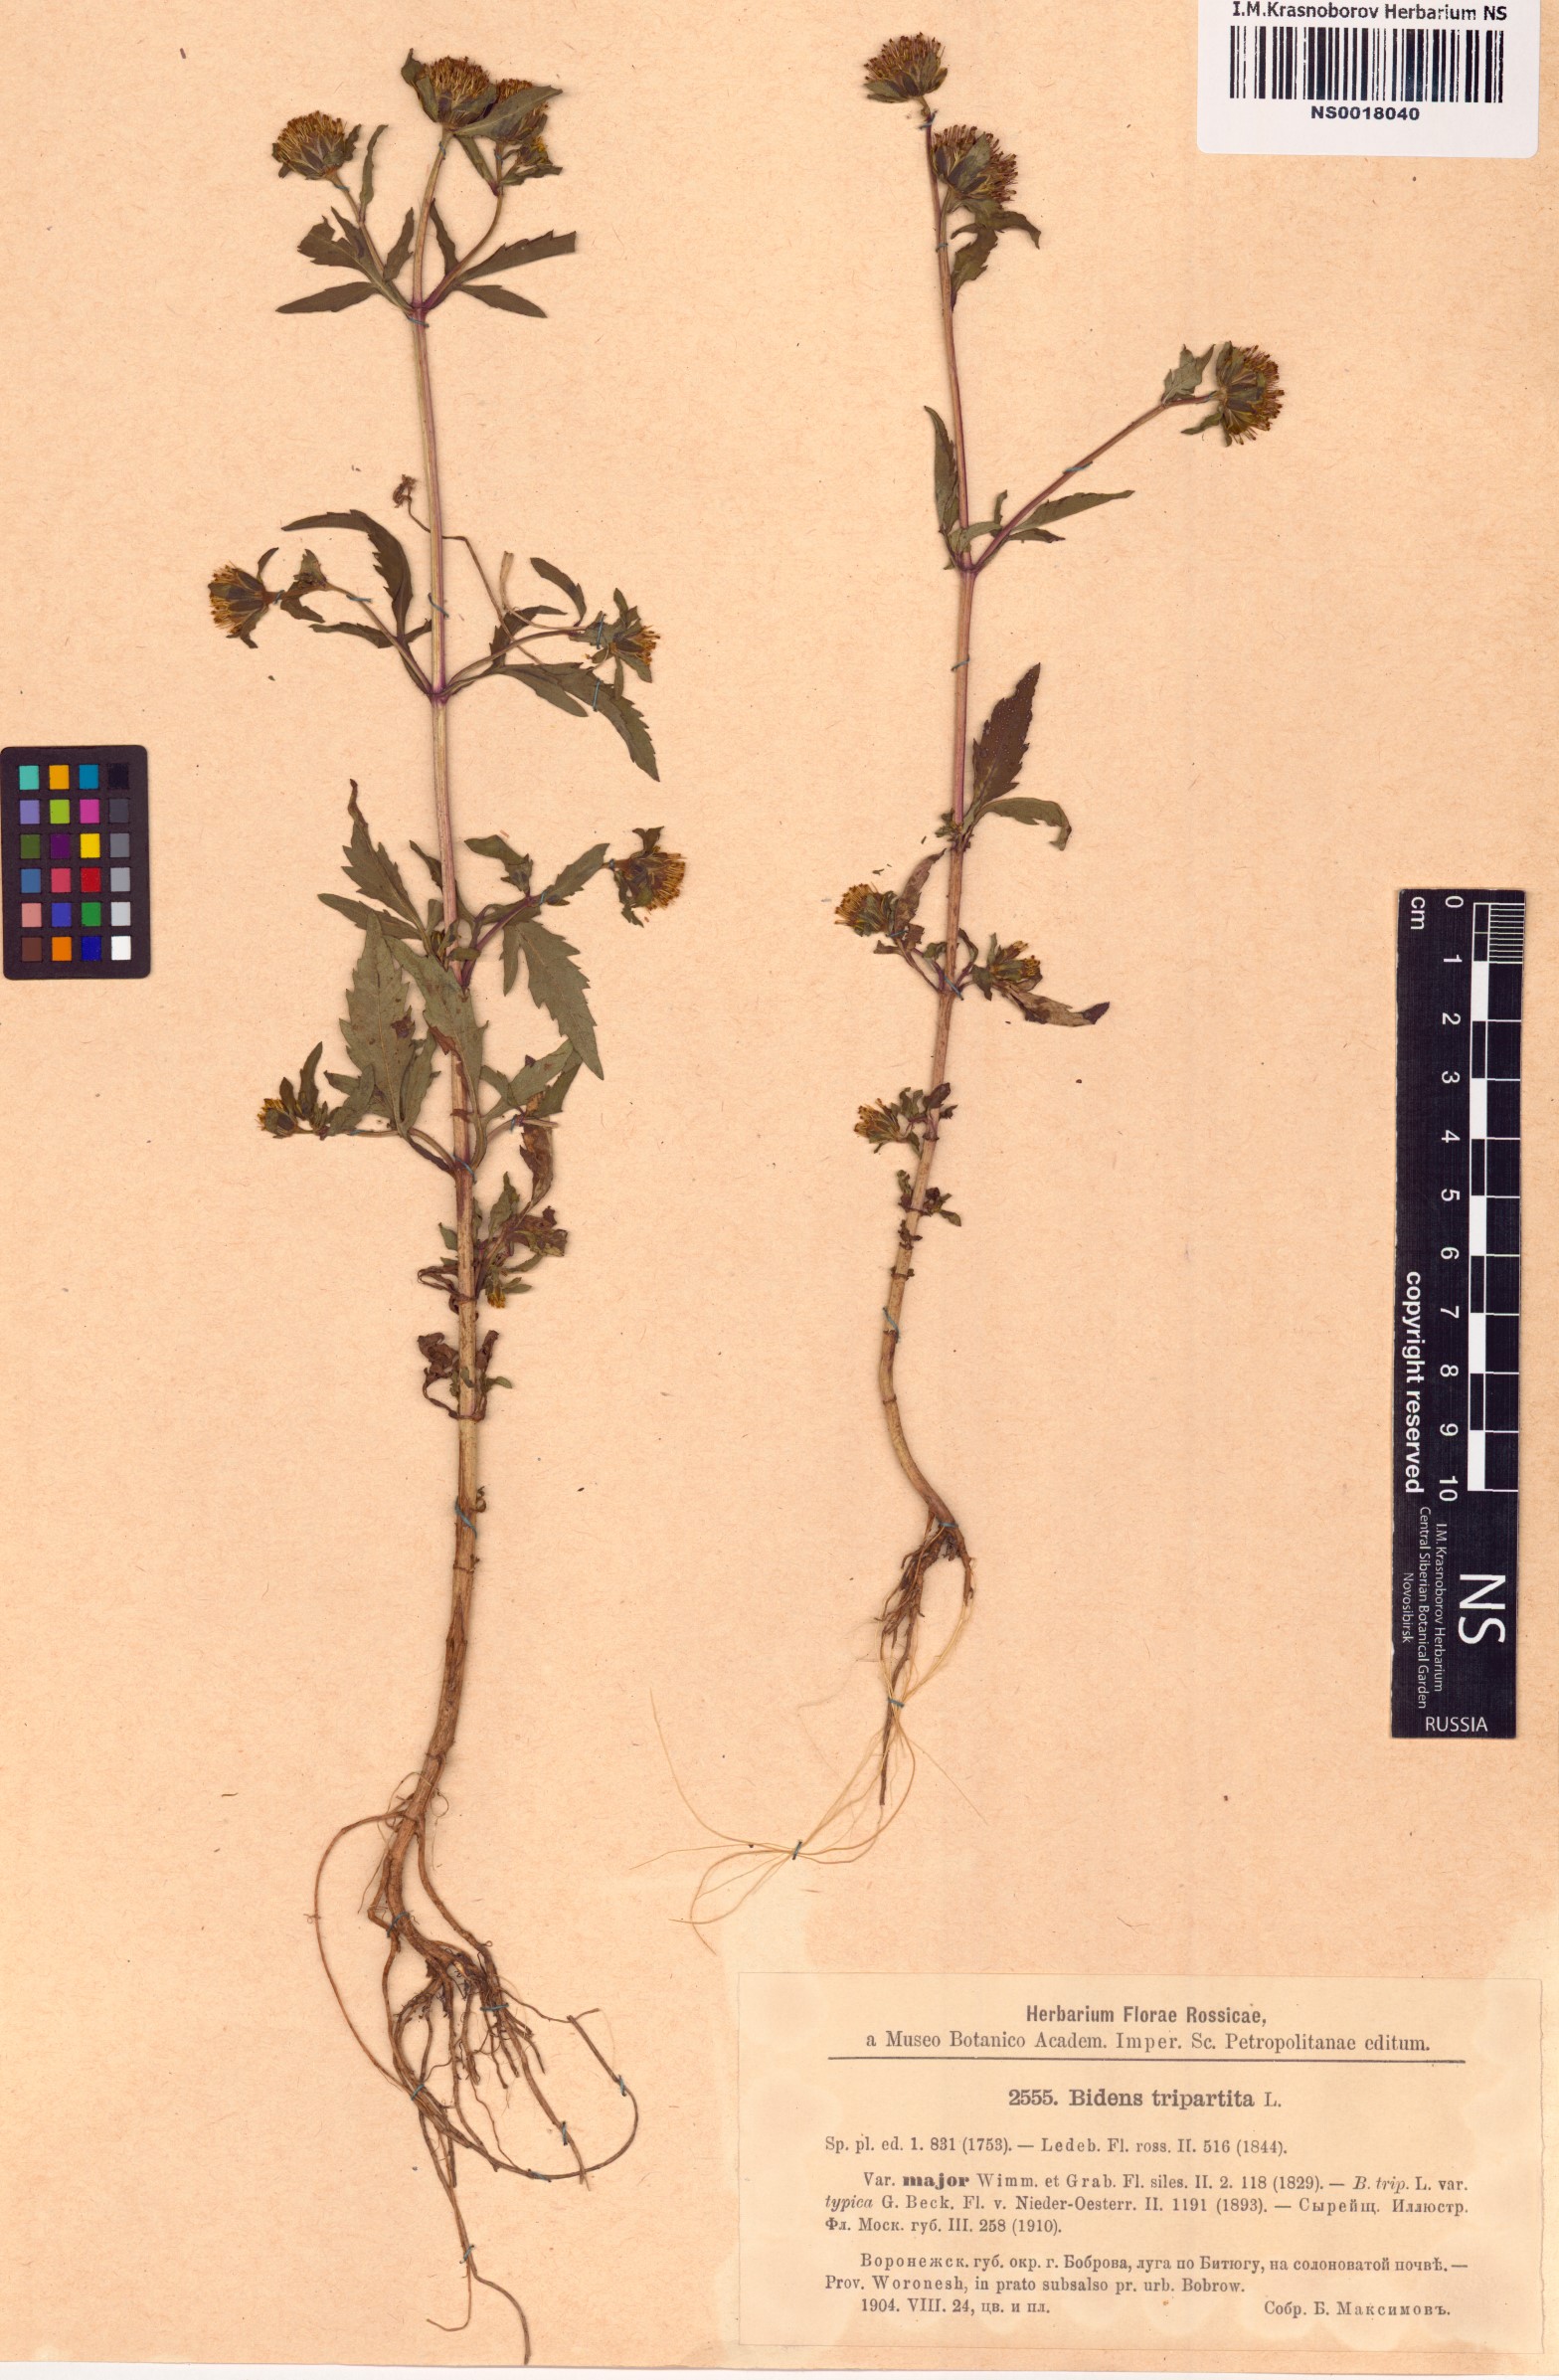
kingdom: Plantae
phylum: Tracheophyta
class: Magnoliopsida
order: Asterales
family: Asteraceae
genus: Bidens
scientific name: Bidens tripartita
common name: Trifid bur-marigold
